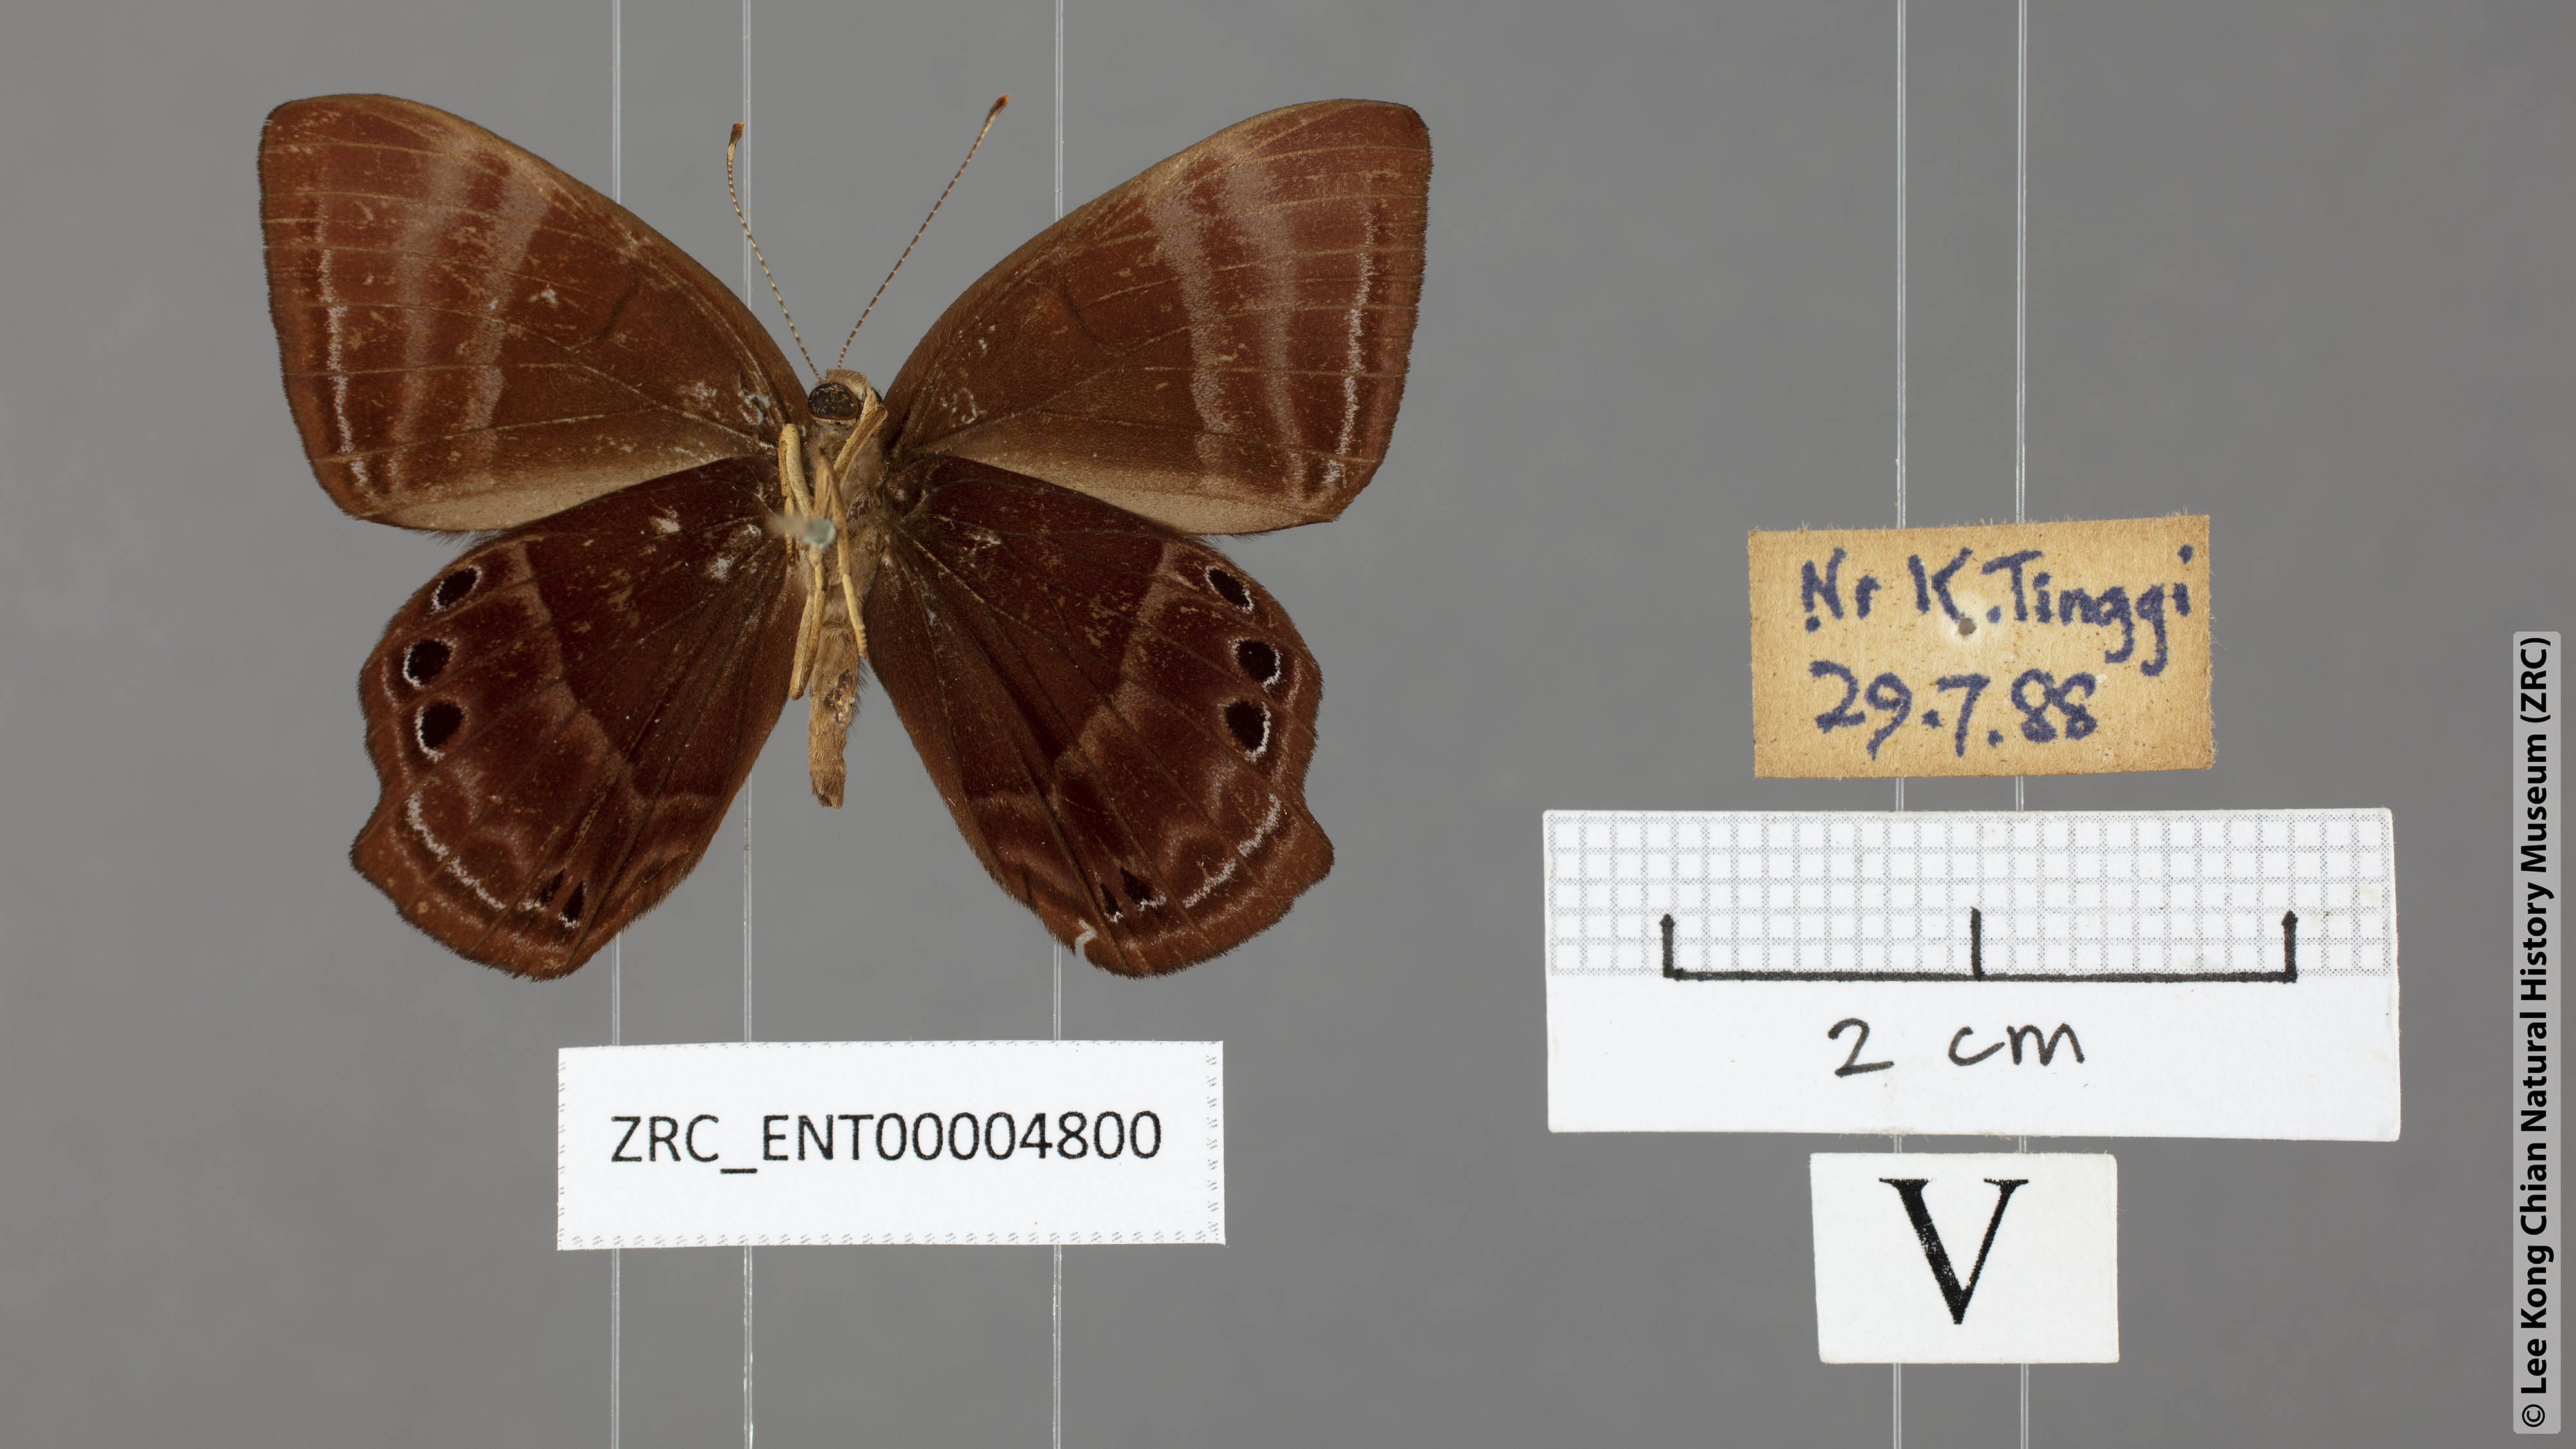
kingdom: Animalia
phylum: Arthropoda
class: Insecta
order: Lepidoptera
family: Lycaenidae
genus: Abisara
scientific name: Abisara kausambi
